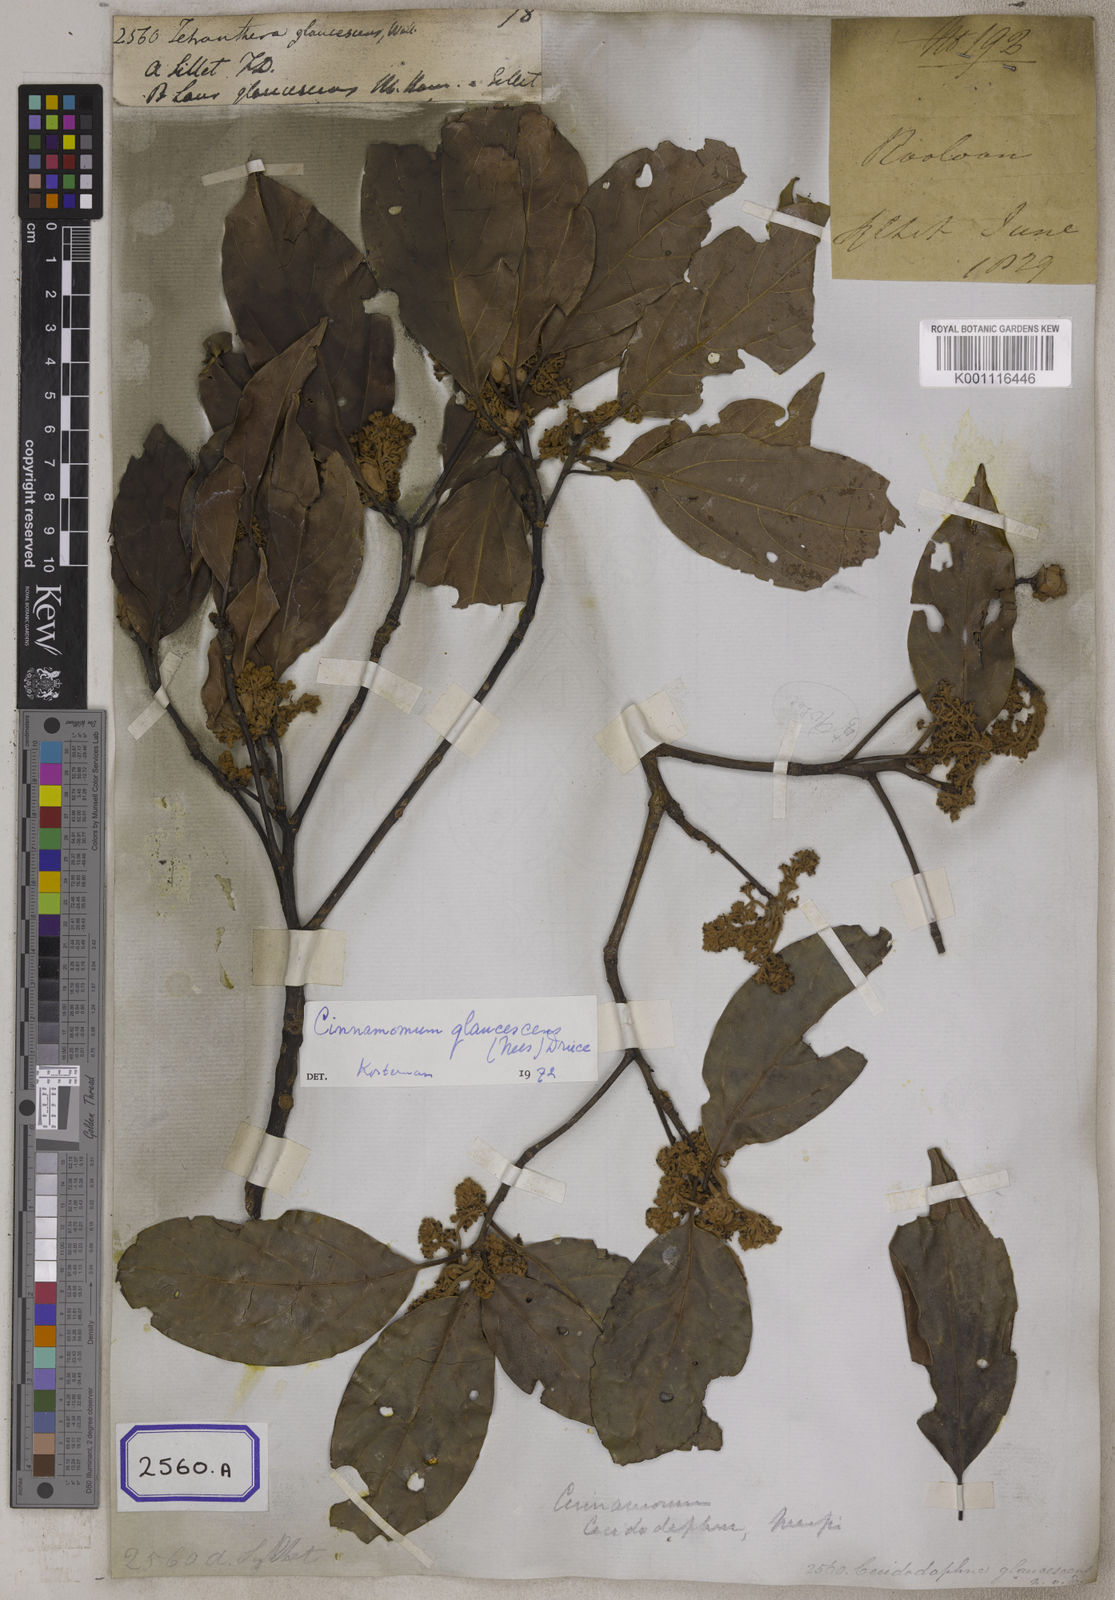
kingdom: Plantae
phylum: Tracheophyta
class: Magnoliopsida
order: Laurales
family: Lauraceae
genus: Cinnamomum
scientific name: Cinnamomum glaucescens
